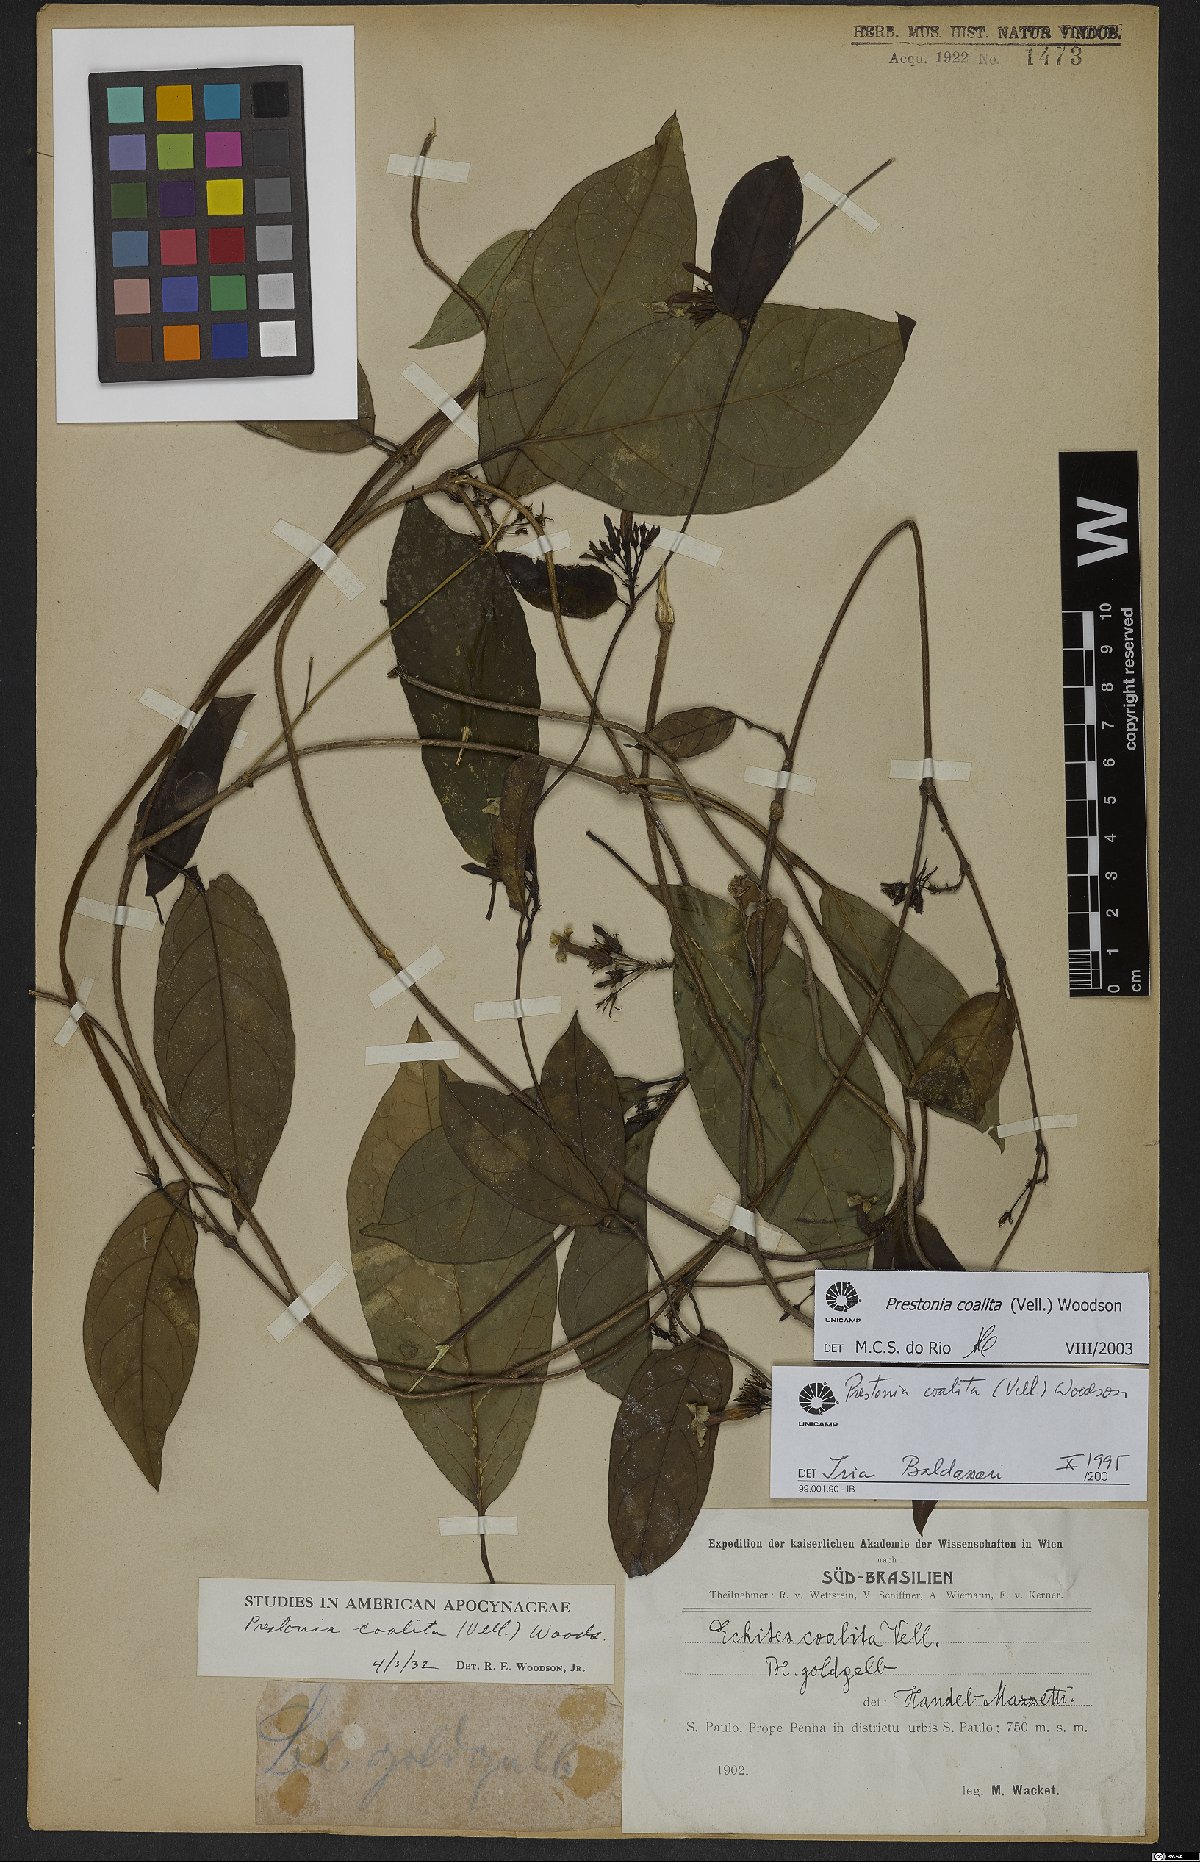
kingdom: Plantae
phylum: Tracheophyta
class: Magnoliopsida
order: Gentianales
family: Apocynaceae
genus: Prestonia
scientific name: Prestonia coalita
